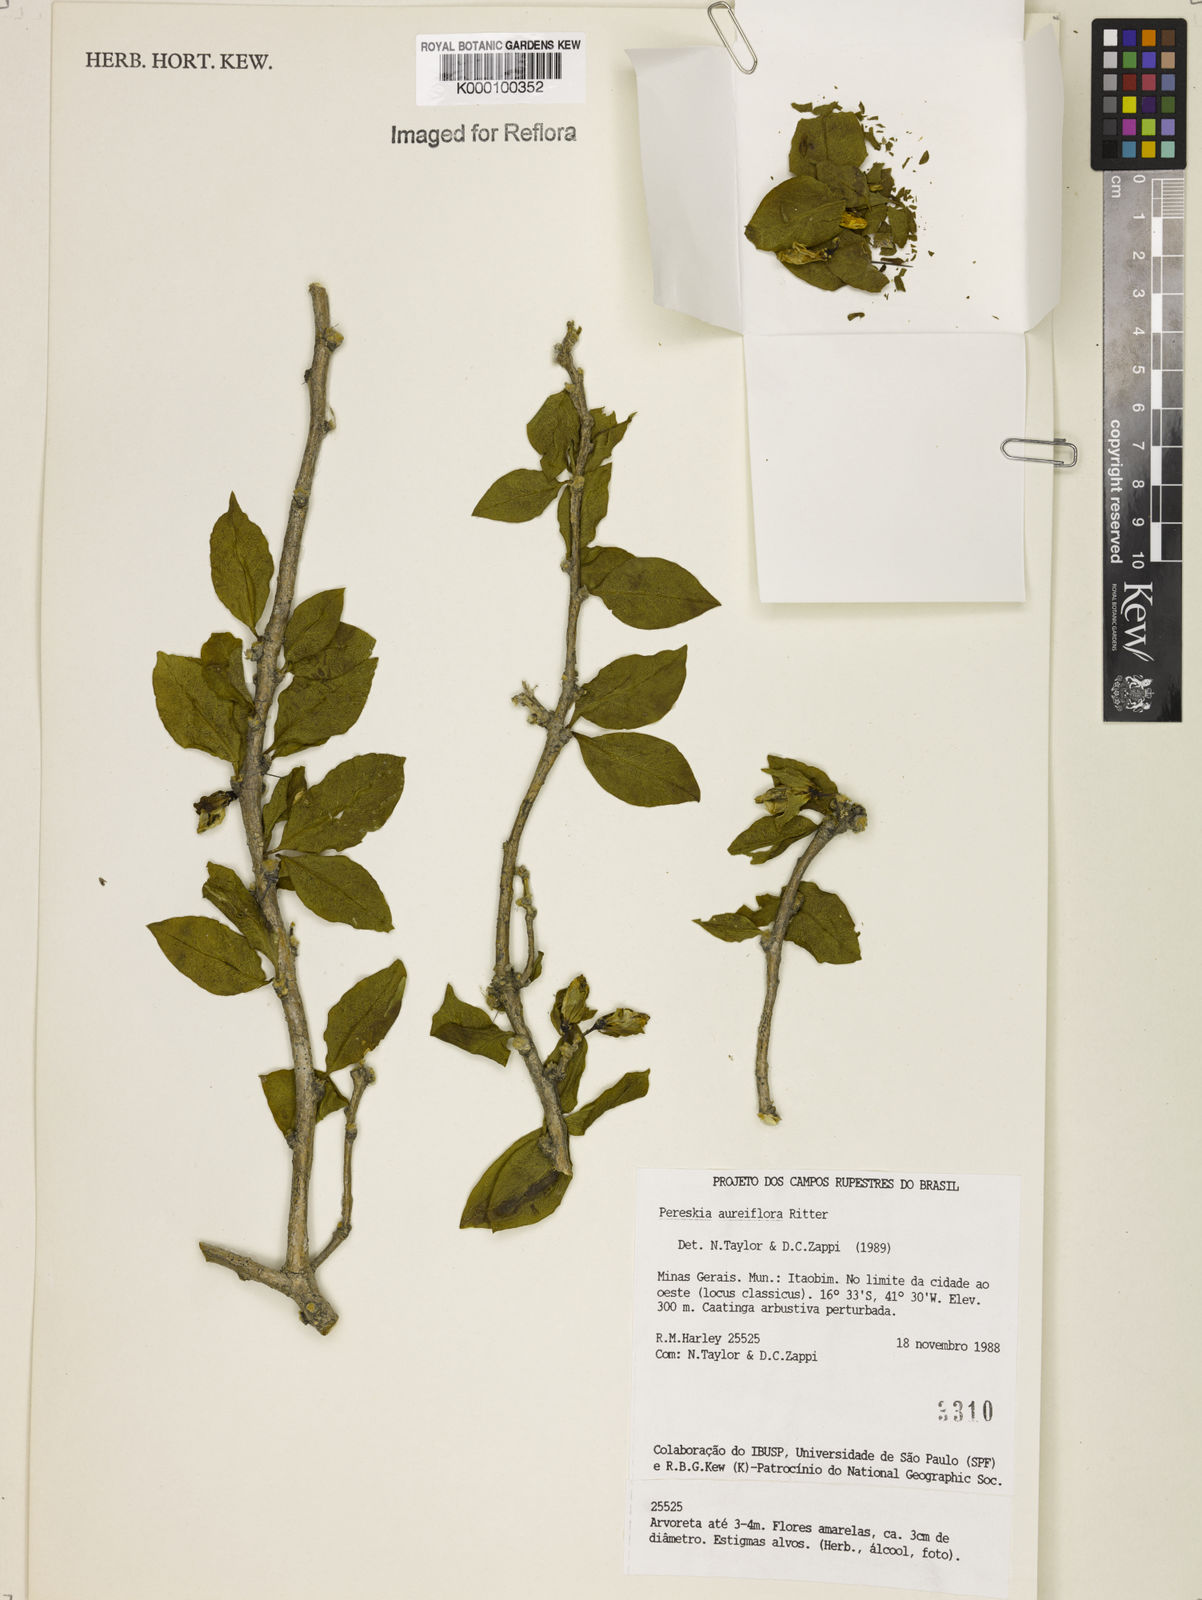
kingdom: Plantae
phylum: Tracheophyta
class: Magnoliopsida
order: Caryophyllales
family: Cactaceae
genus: Leuenbergeria
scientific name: Leuenbergeria aureiflora
